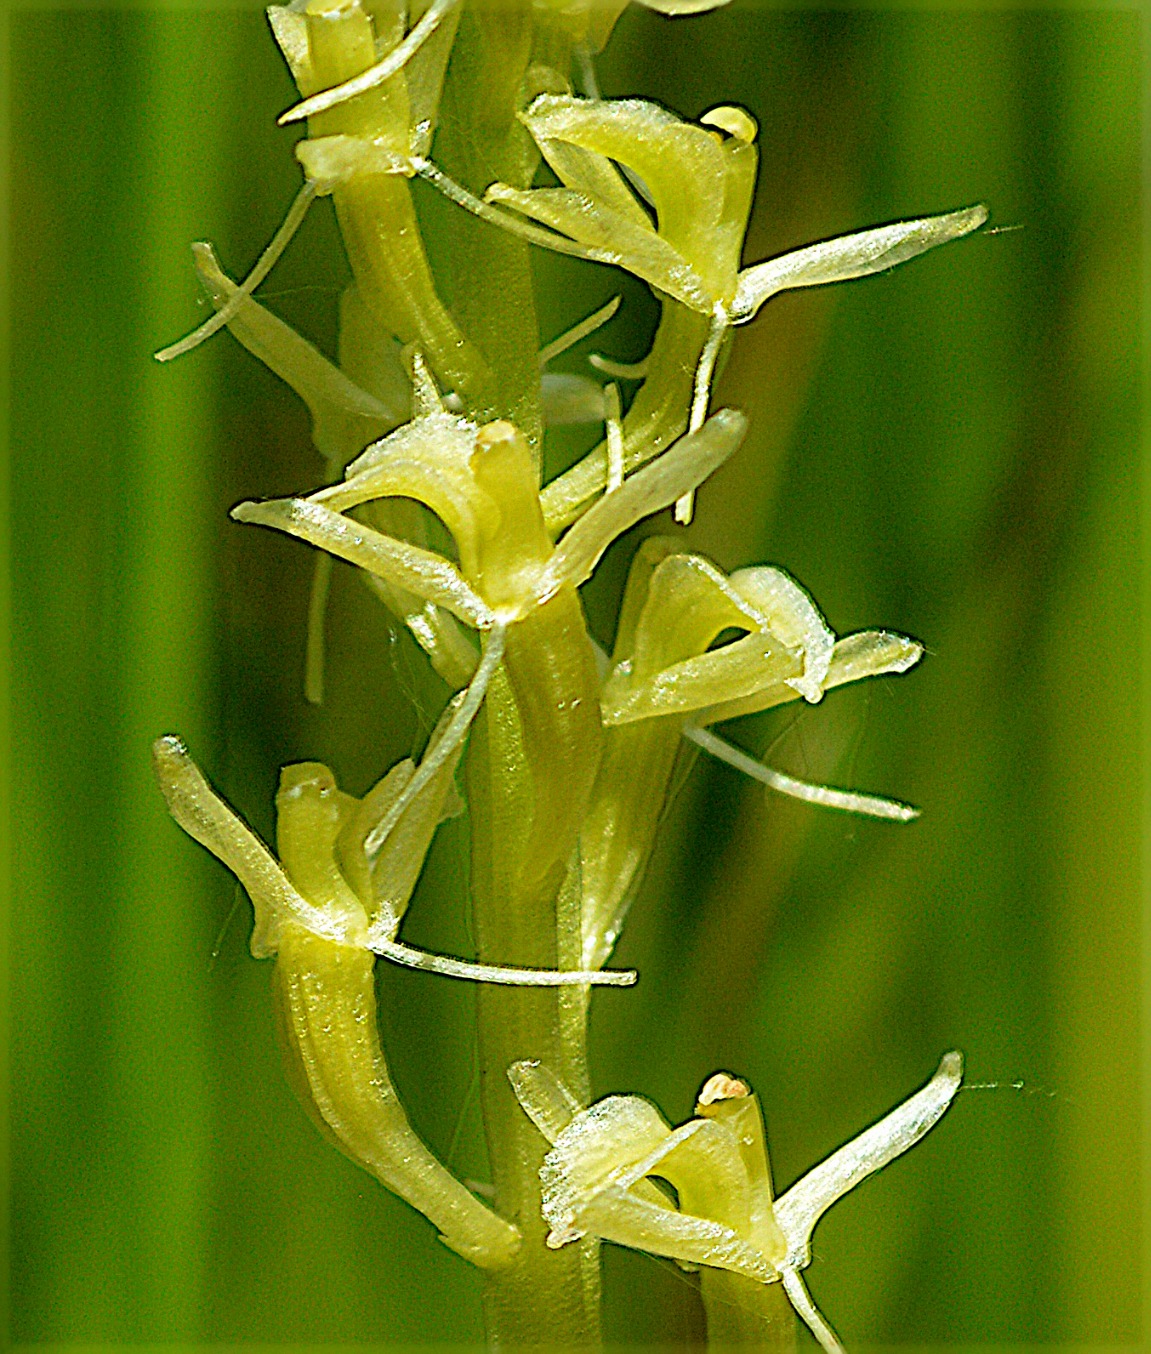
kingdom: Animalia
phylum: Arthropoda
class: Insecta
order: Coleoptera
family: Curculionidae
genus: Liparis
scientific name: Liparis loeselii
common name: Mygblomst
